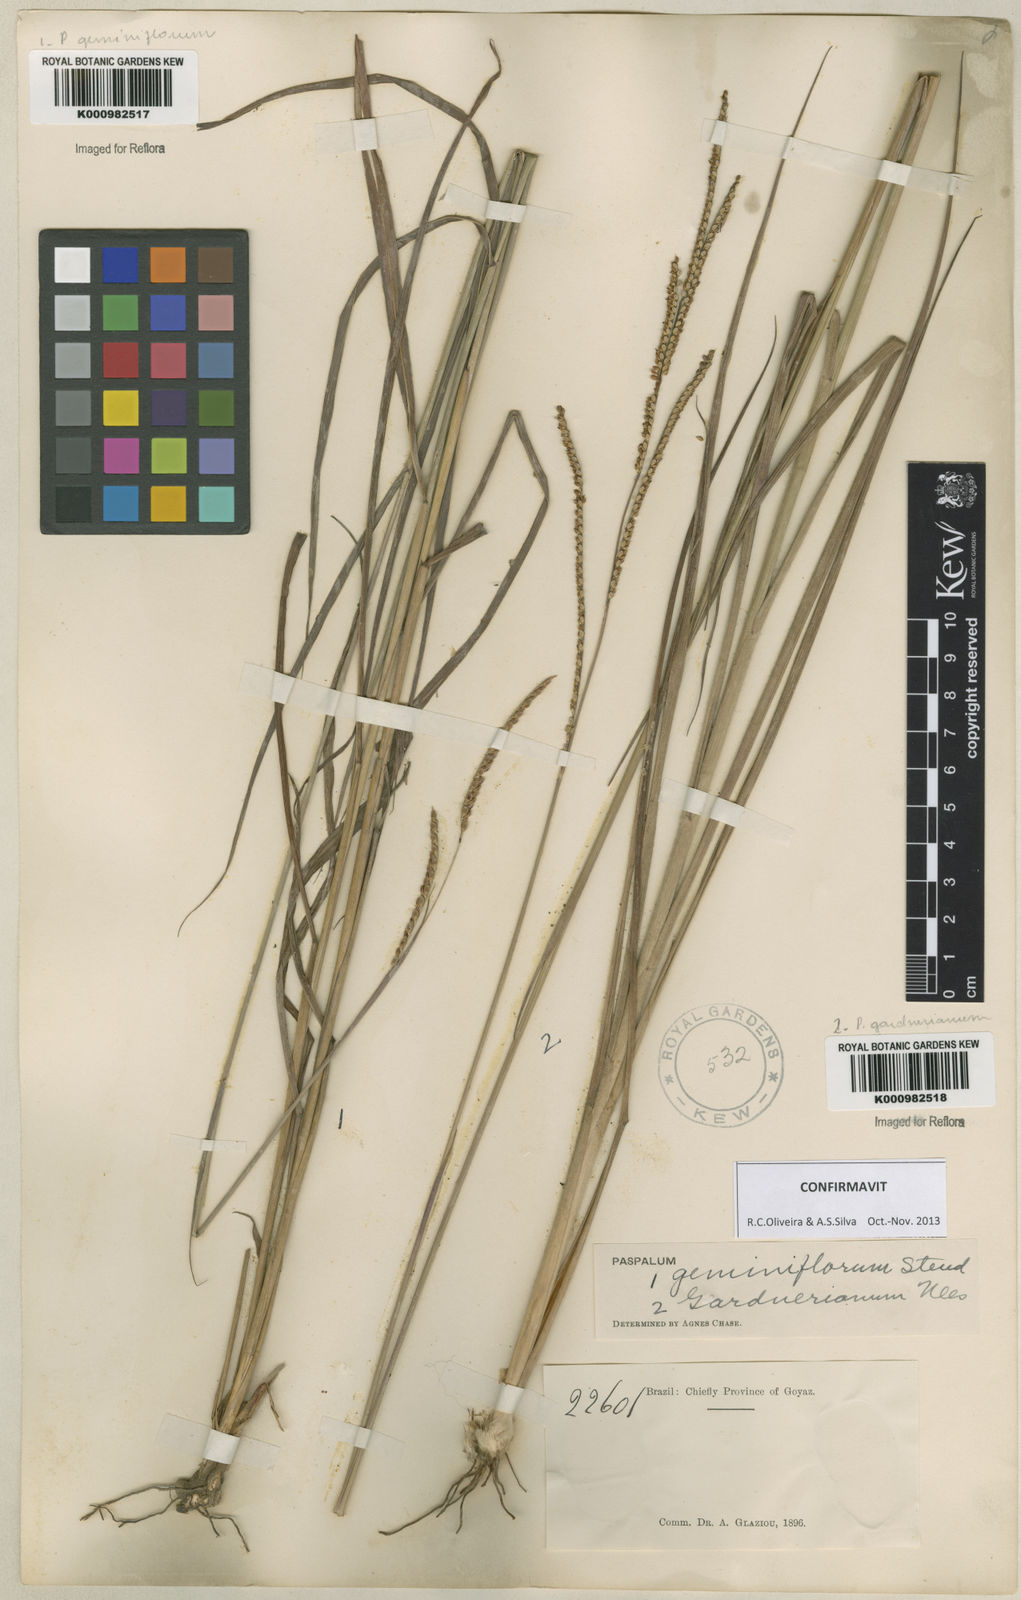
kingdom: Plantae
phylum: Tracheophyta
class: Liliopsida
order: Poales
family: Poaceae
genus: Paspalum
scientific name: Paspalum geminiflorum
